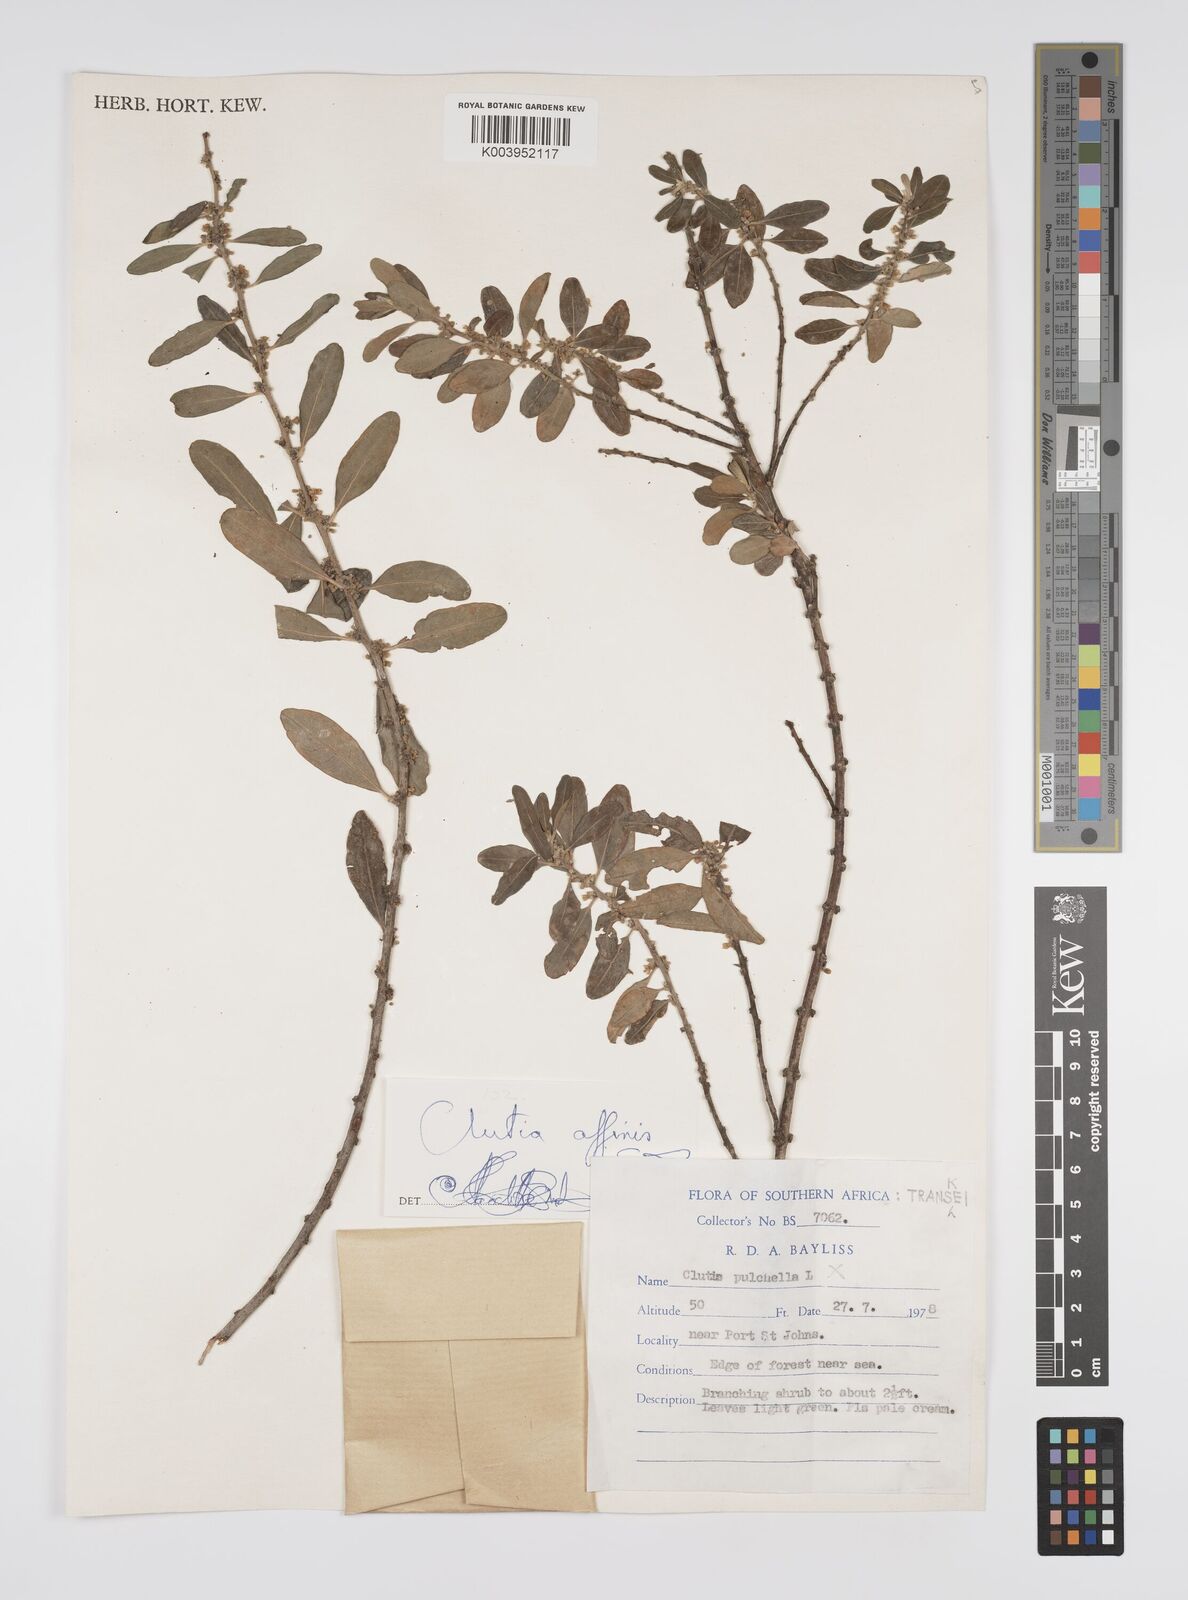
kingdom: Plantae
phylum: Tracheophyta
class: Magnoliopsida
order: Malpighiales
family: Peraceae
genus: Clutia
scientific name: Clutia affinis
